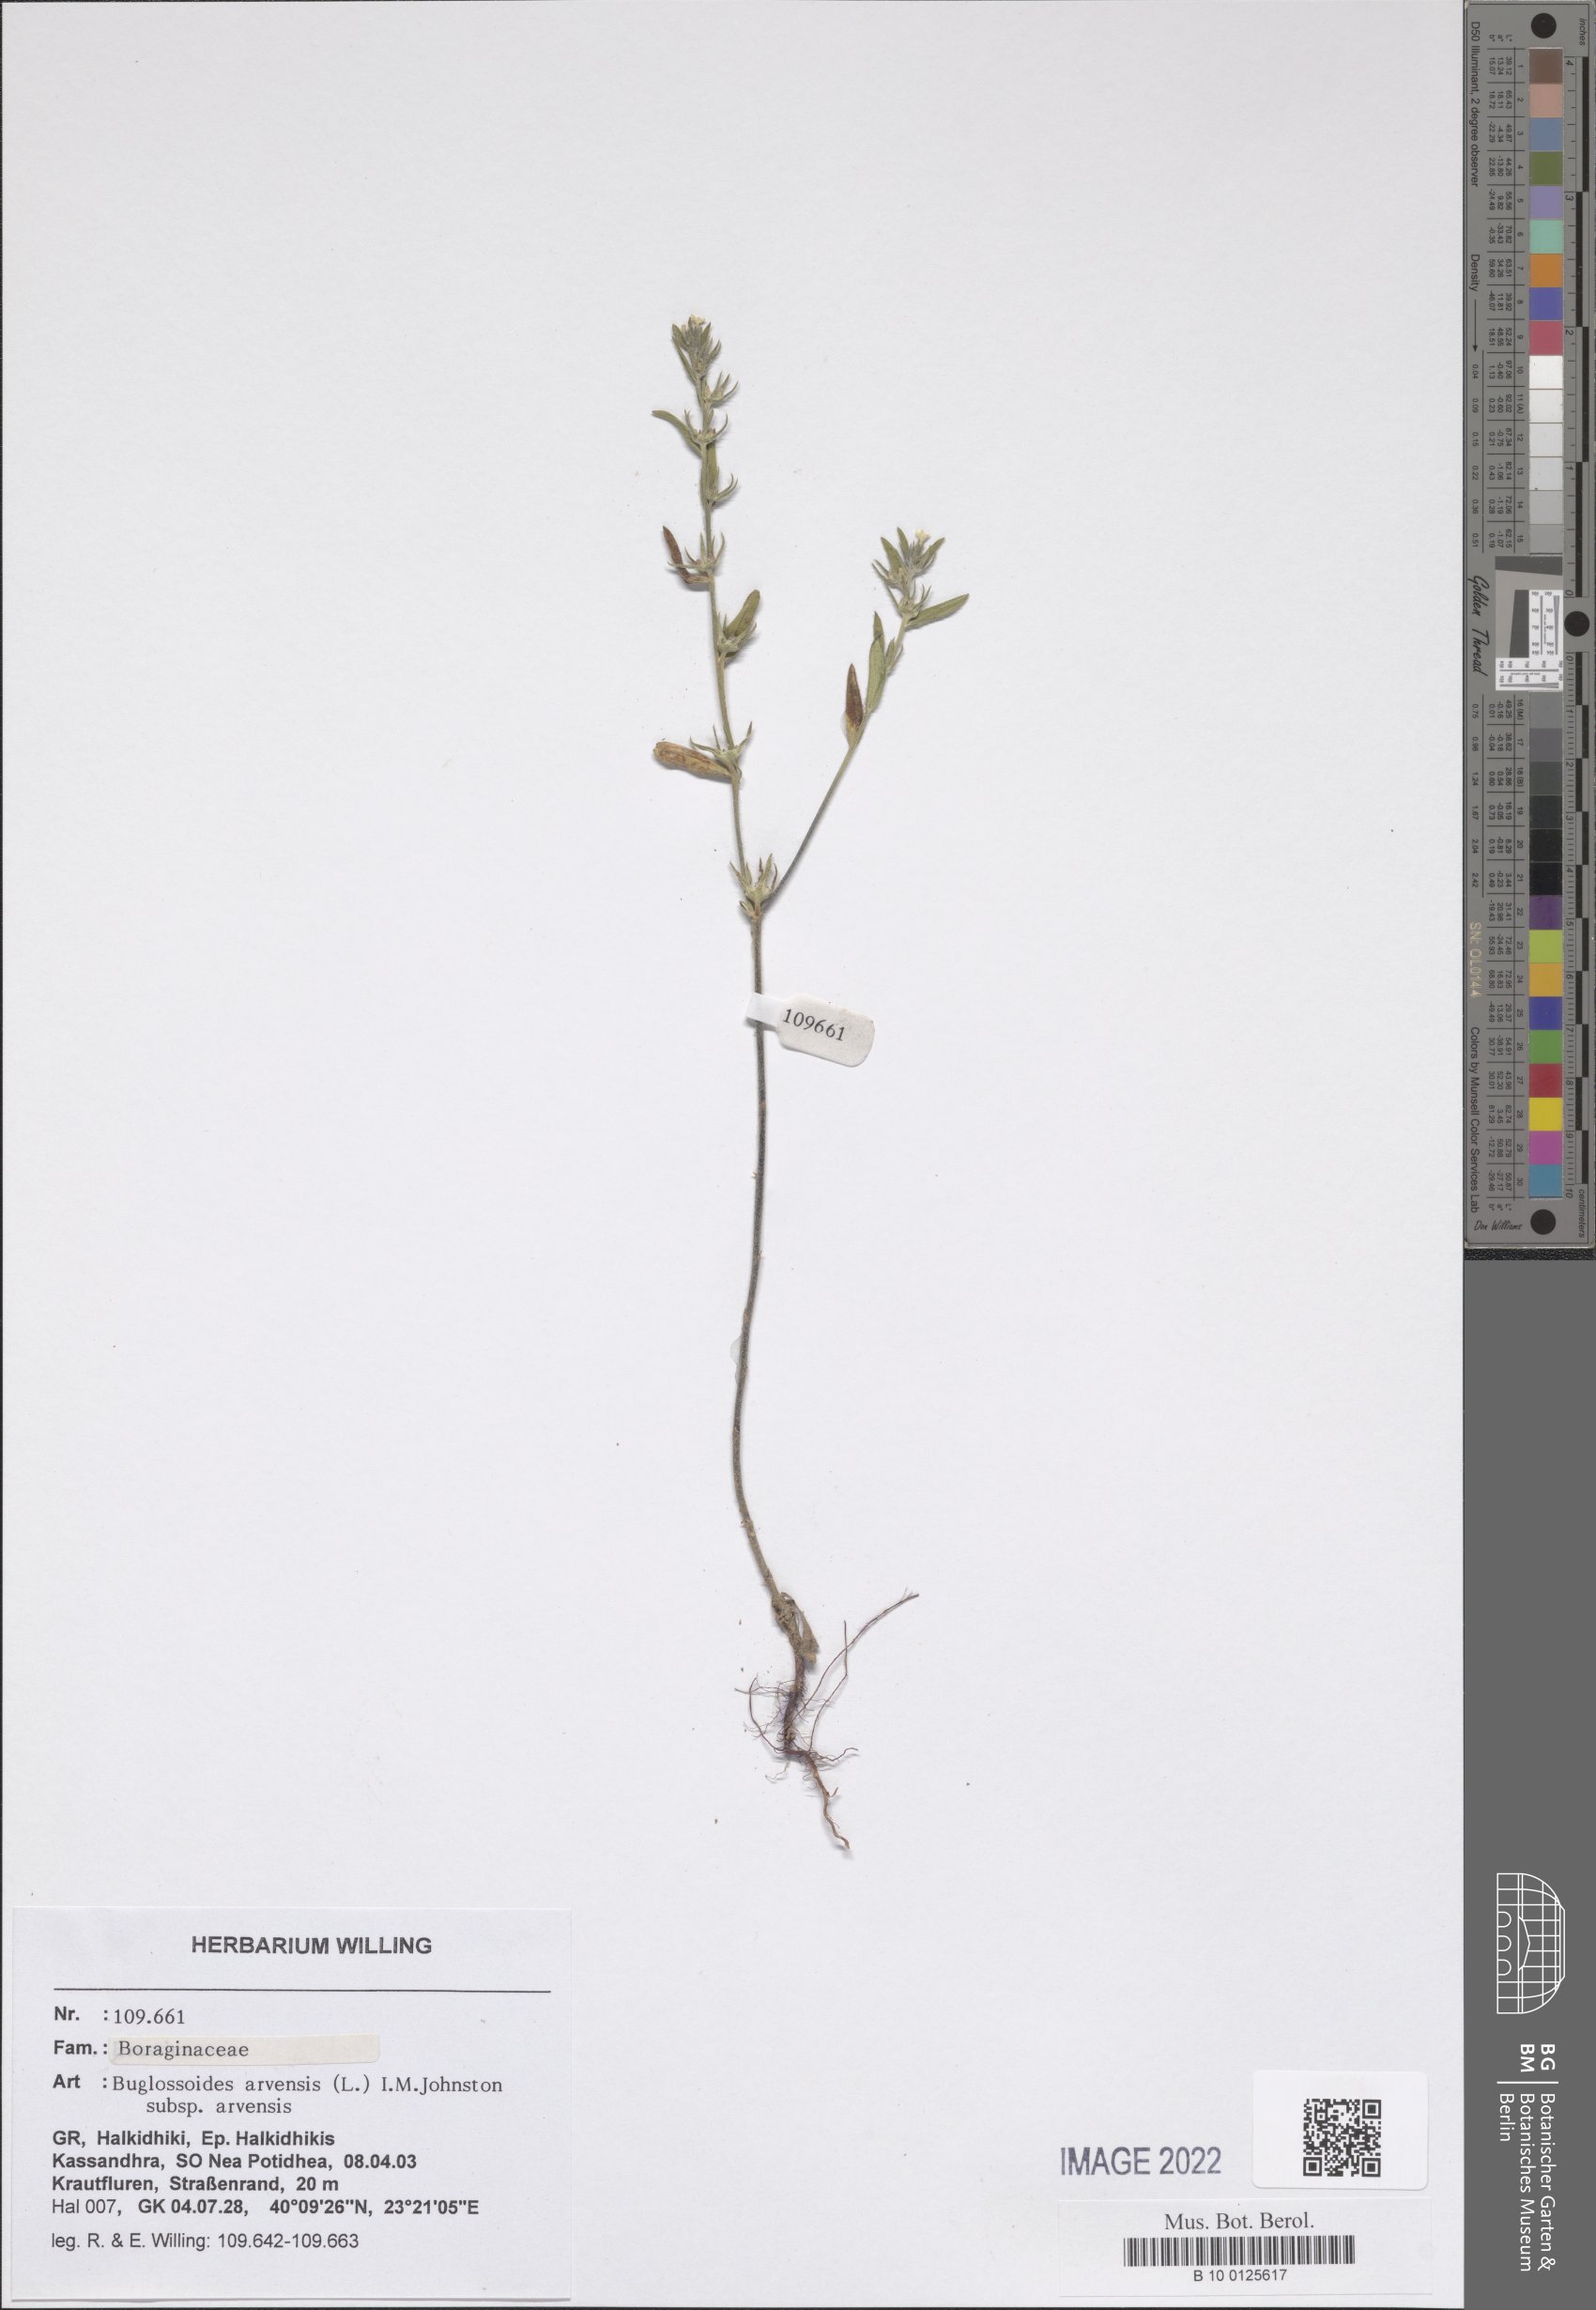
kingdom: Plantae
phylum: Tracheophyta
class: Magnoliopsida
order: Boraginales
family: Boraginaceae
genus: Buglossoides
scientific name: Buglossoides arvensis
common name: Corn gromwell
